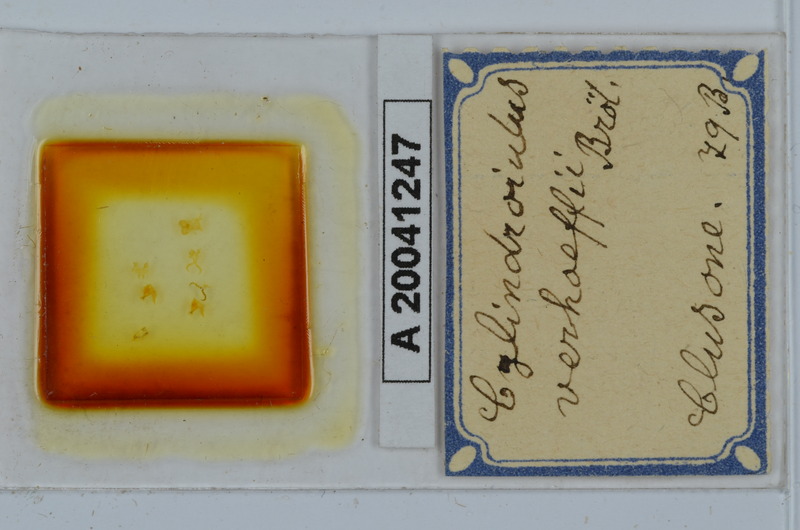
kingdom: Animalia
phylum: Arthropoda
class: Diplopoda
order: Julida
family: Julidae
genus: Cylindroiulus
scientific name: Cylindroiulus verhoeffi
